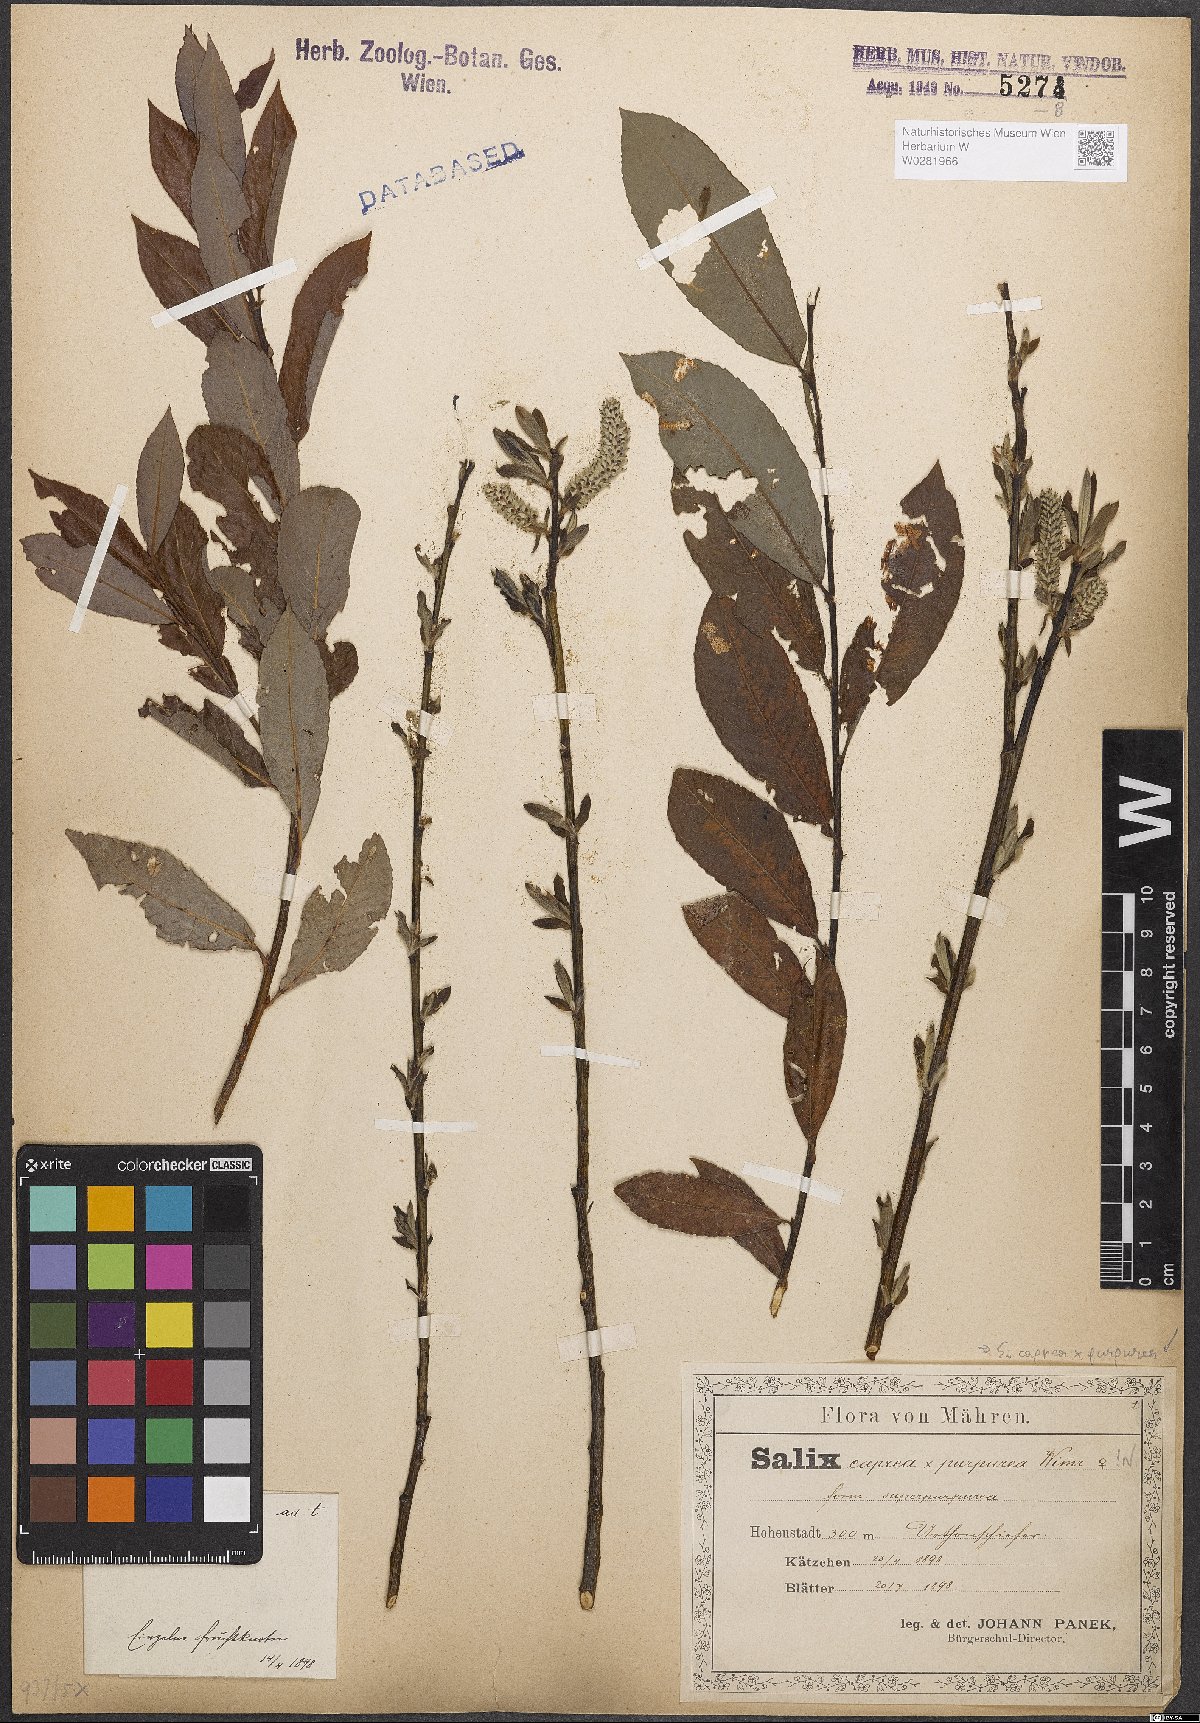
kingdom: Plantae
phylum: Tracheophyta
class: Magnoliopsida
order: Malpighiales
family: Salicaceae
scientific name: Salicaceae
